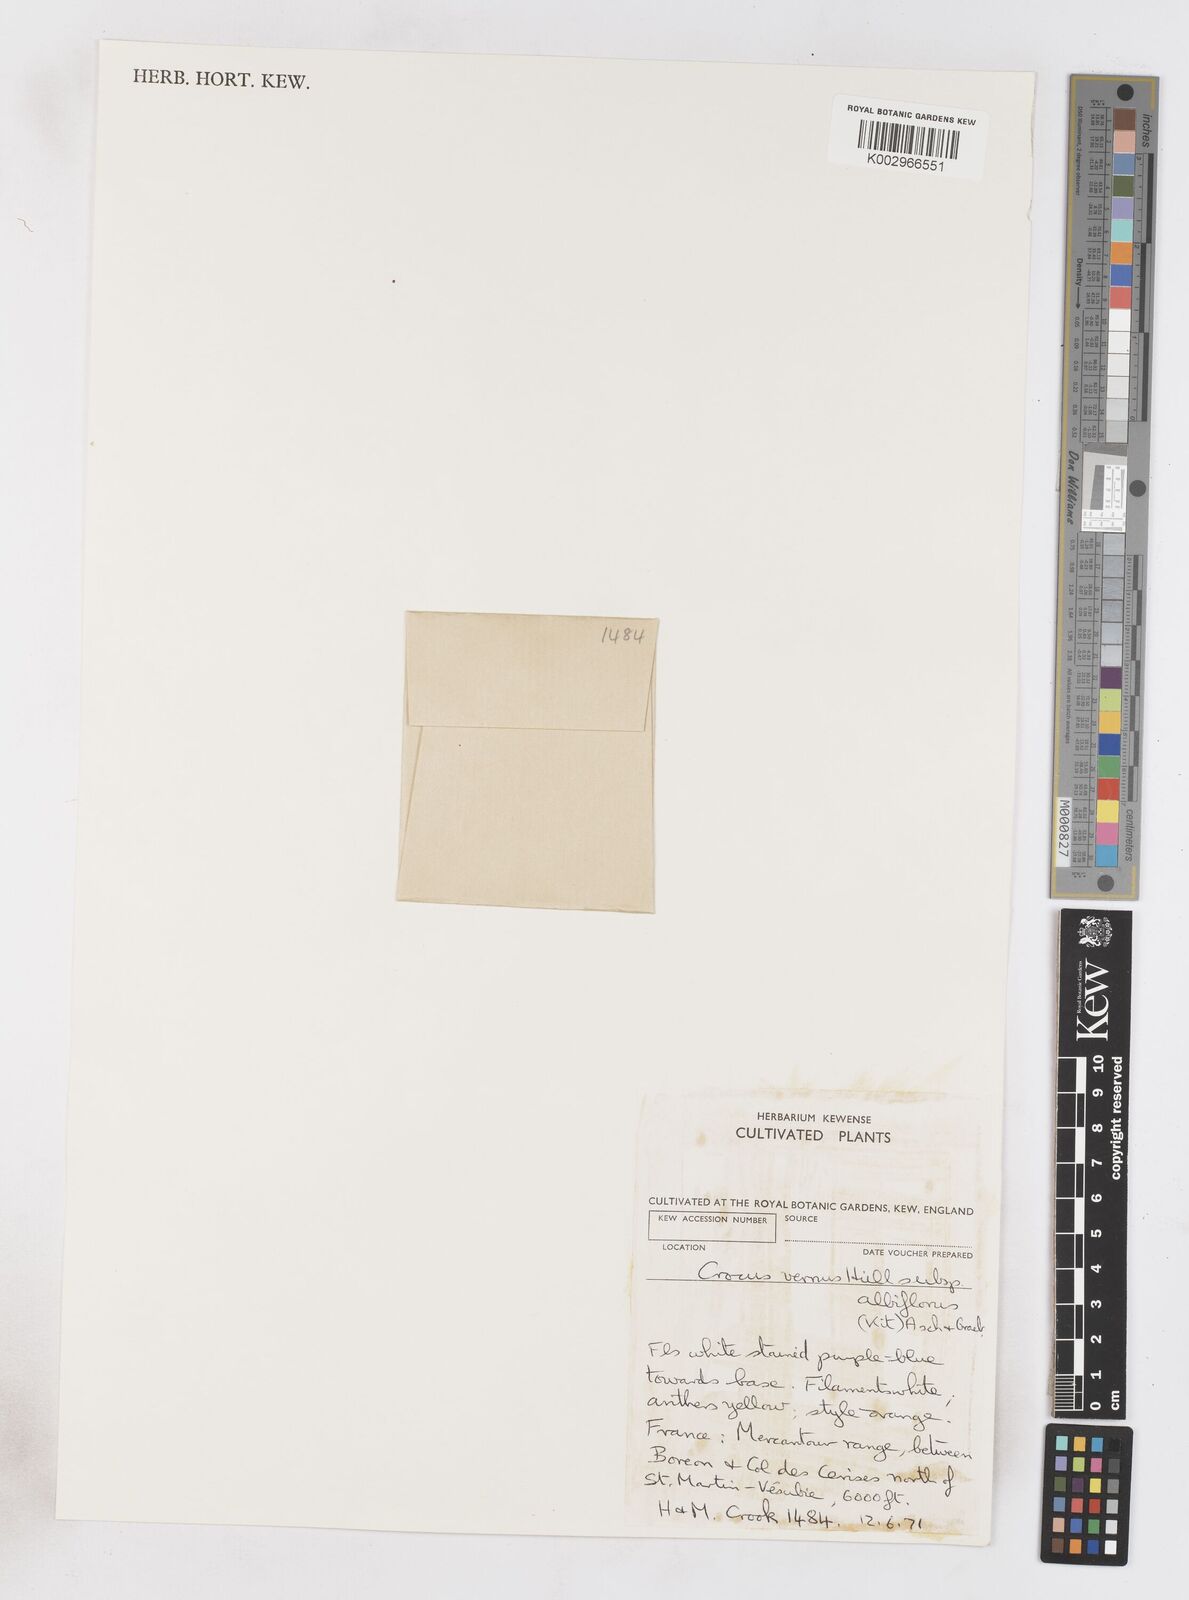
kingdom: Plantae
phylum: Tracheophyta
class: Liliopsida
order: Asparagales
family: Iridaceae
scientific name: Iridaceae
